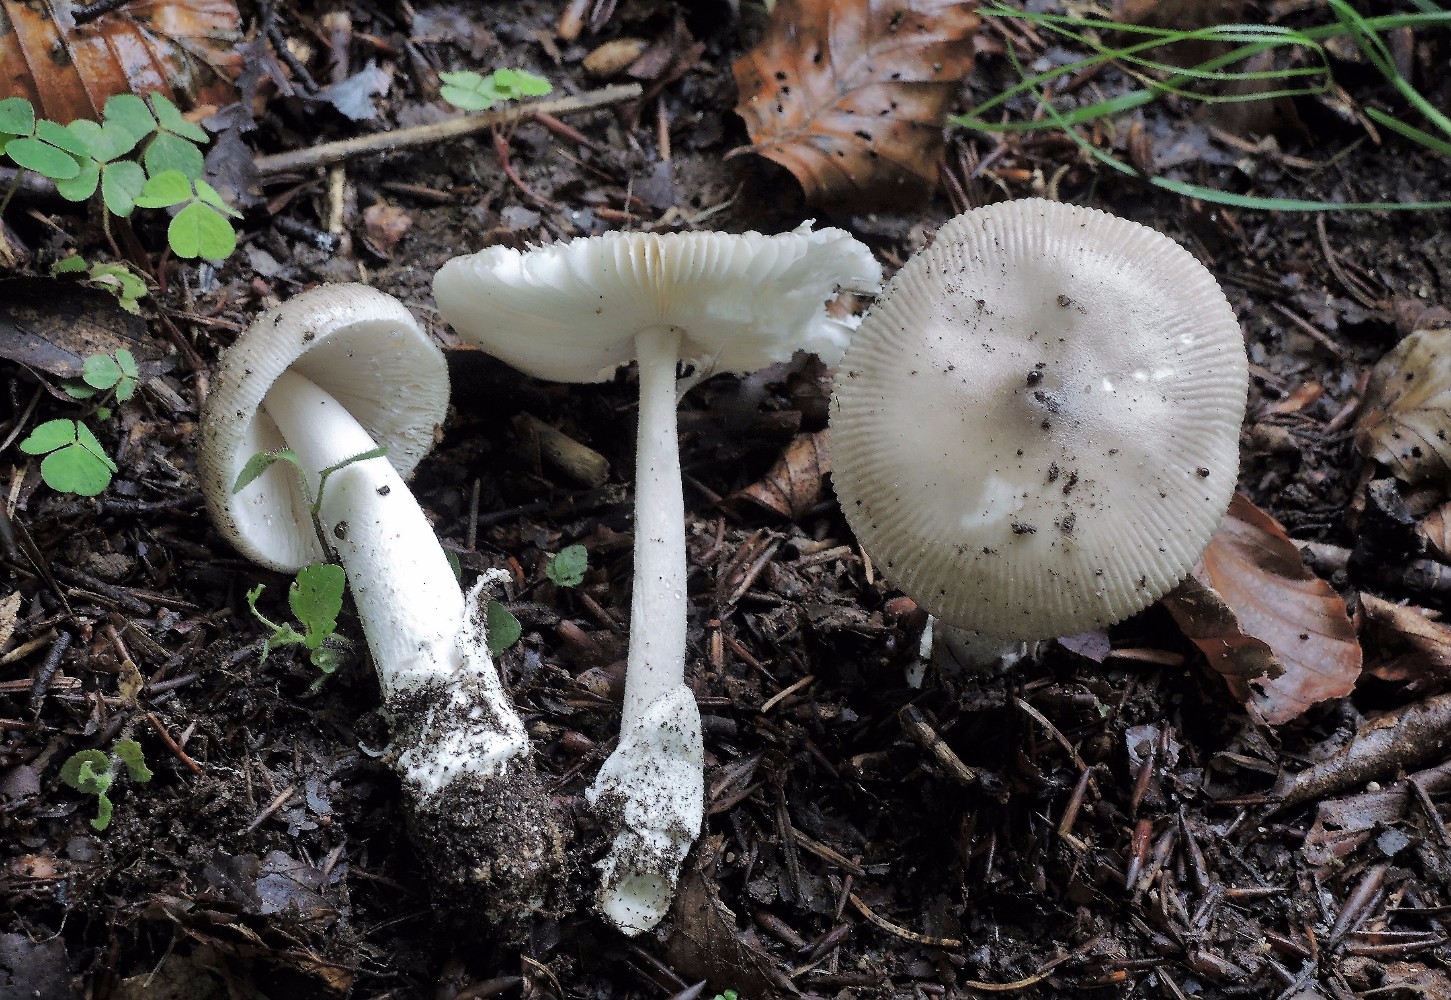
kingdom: Fungi
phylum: Basidiomycota
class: Agaricomycetes
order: Agaricales
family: Amanitaceae
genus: Amanita
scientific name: Amanita vaginata
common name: grå kam-fluesvamp
